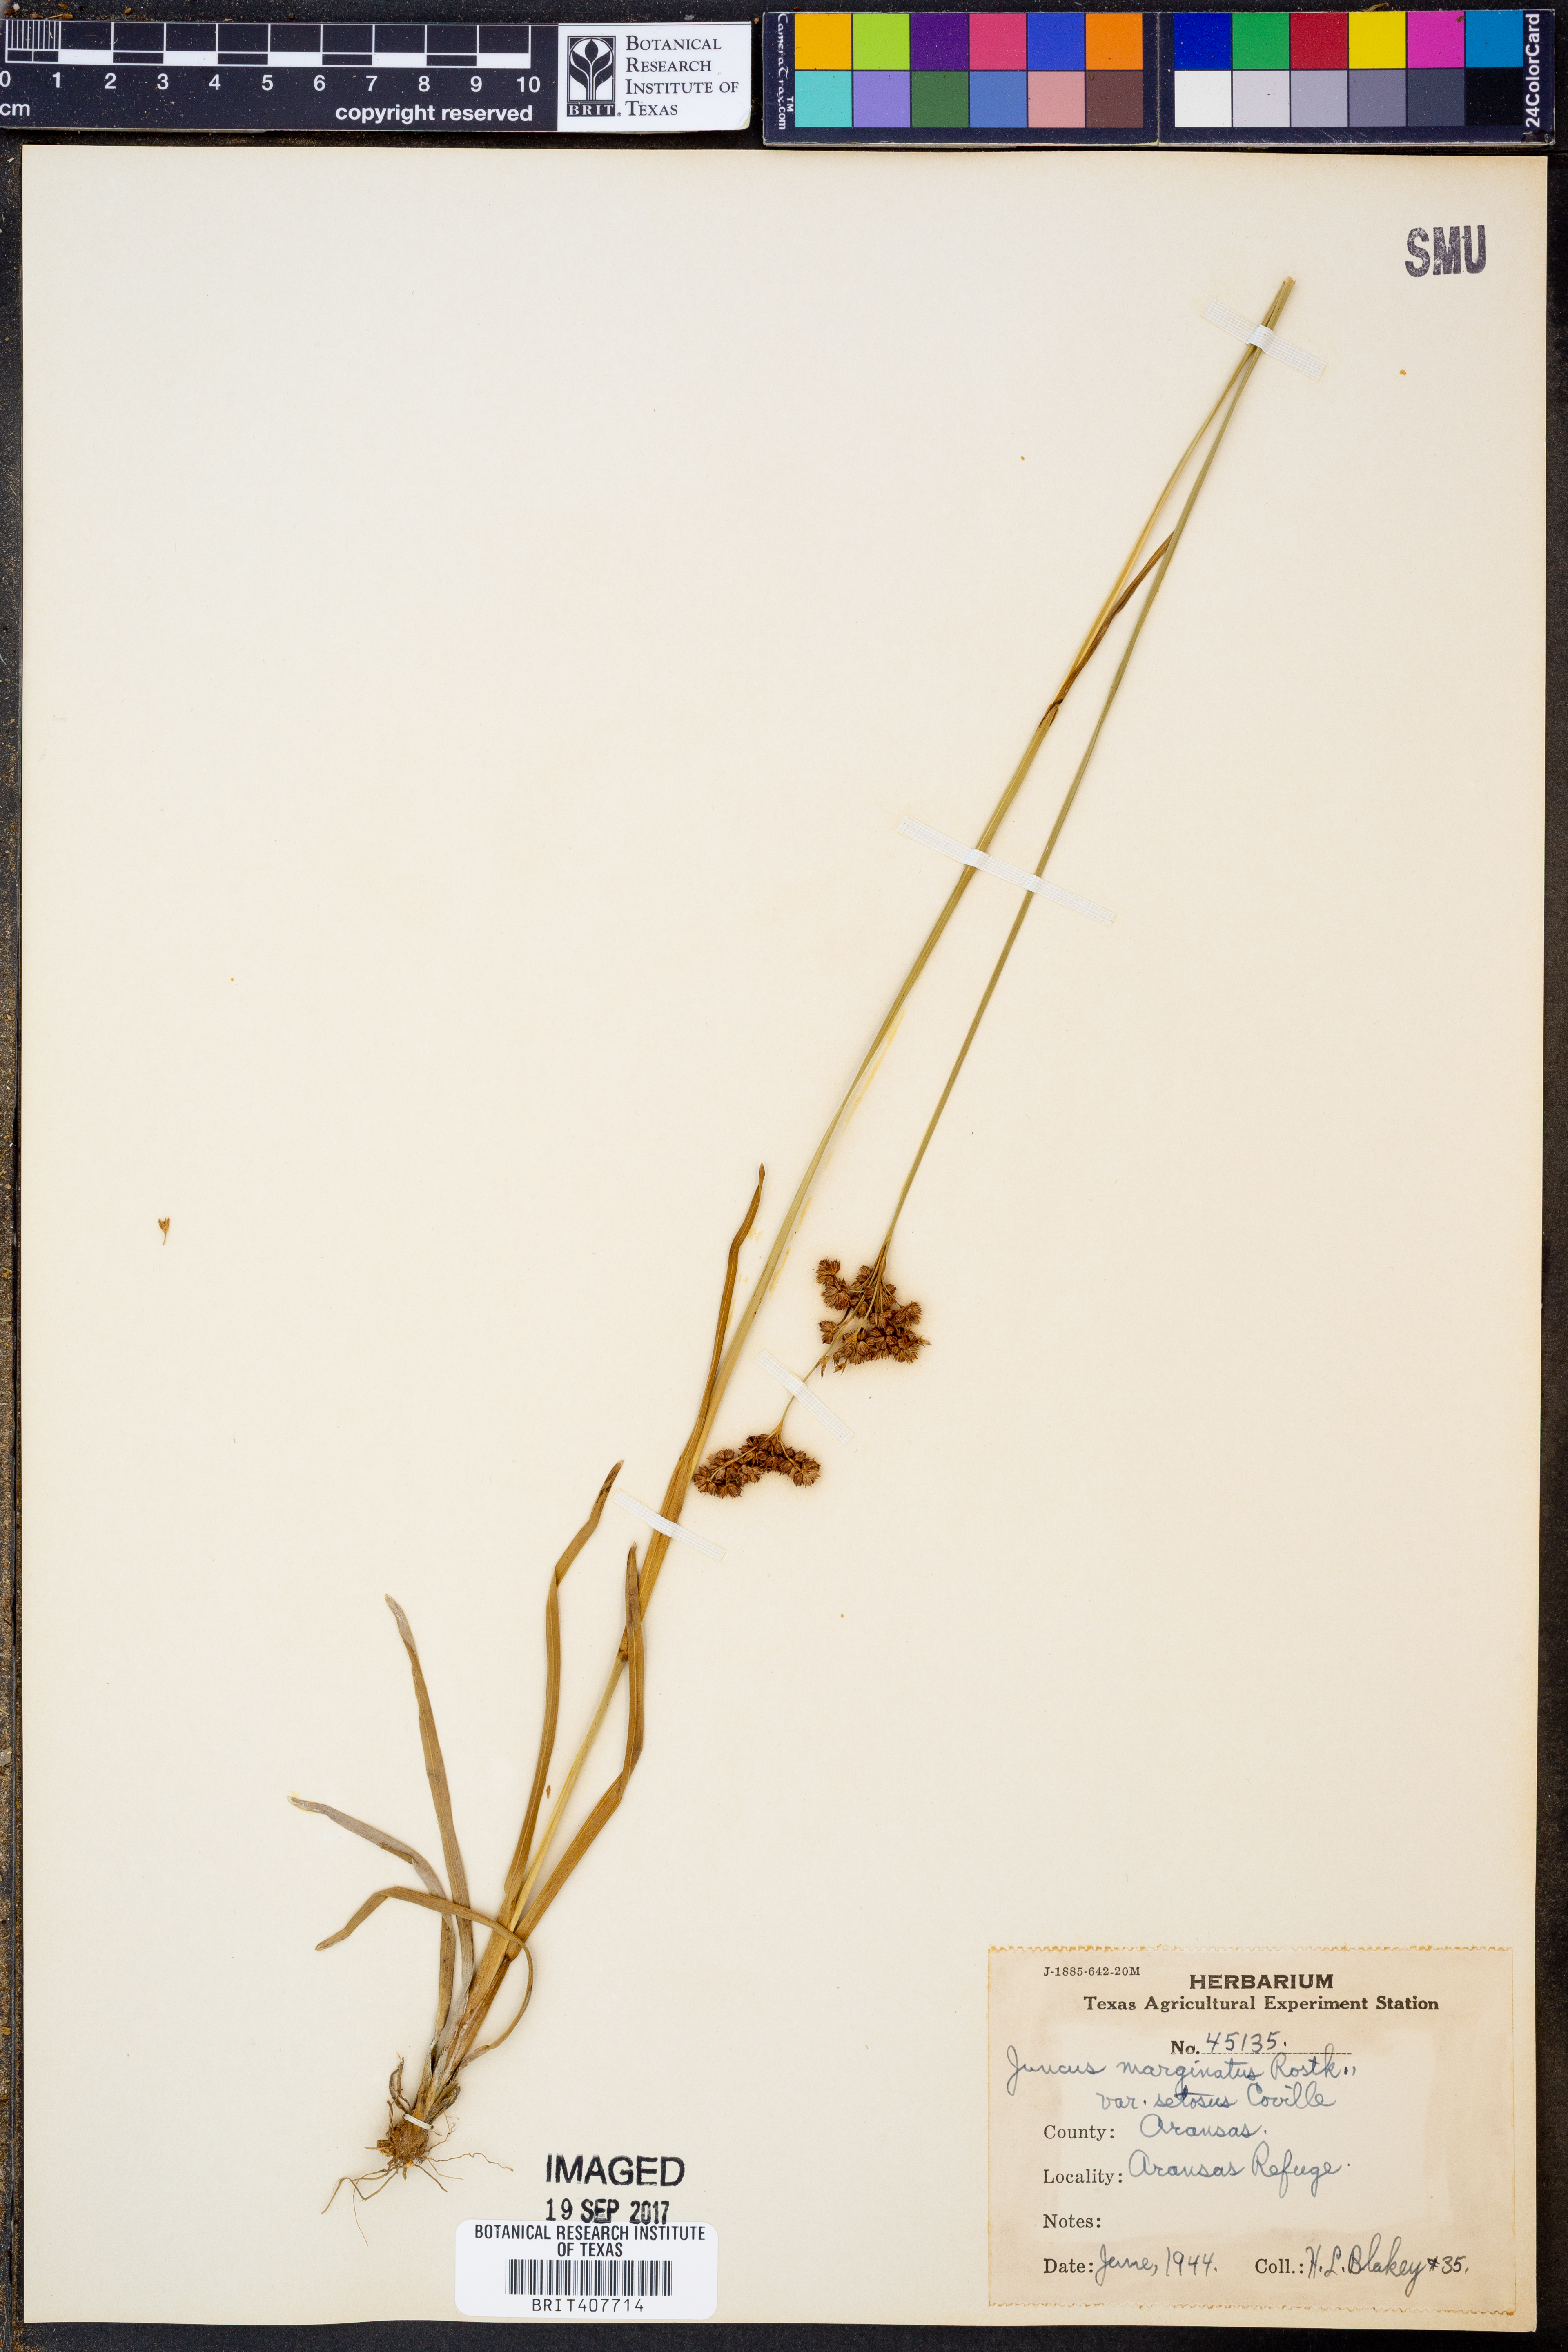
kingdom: Plantae
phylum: Tracheophyta
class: Liliopsida
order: Poales
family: Juncaceae
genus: Juncus
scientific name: Juncus marginatus
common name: Grass-leaf rush
